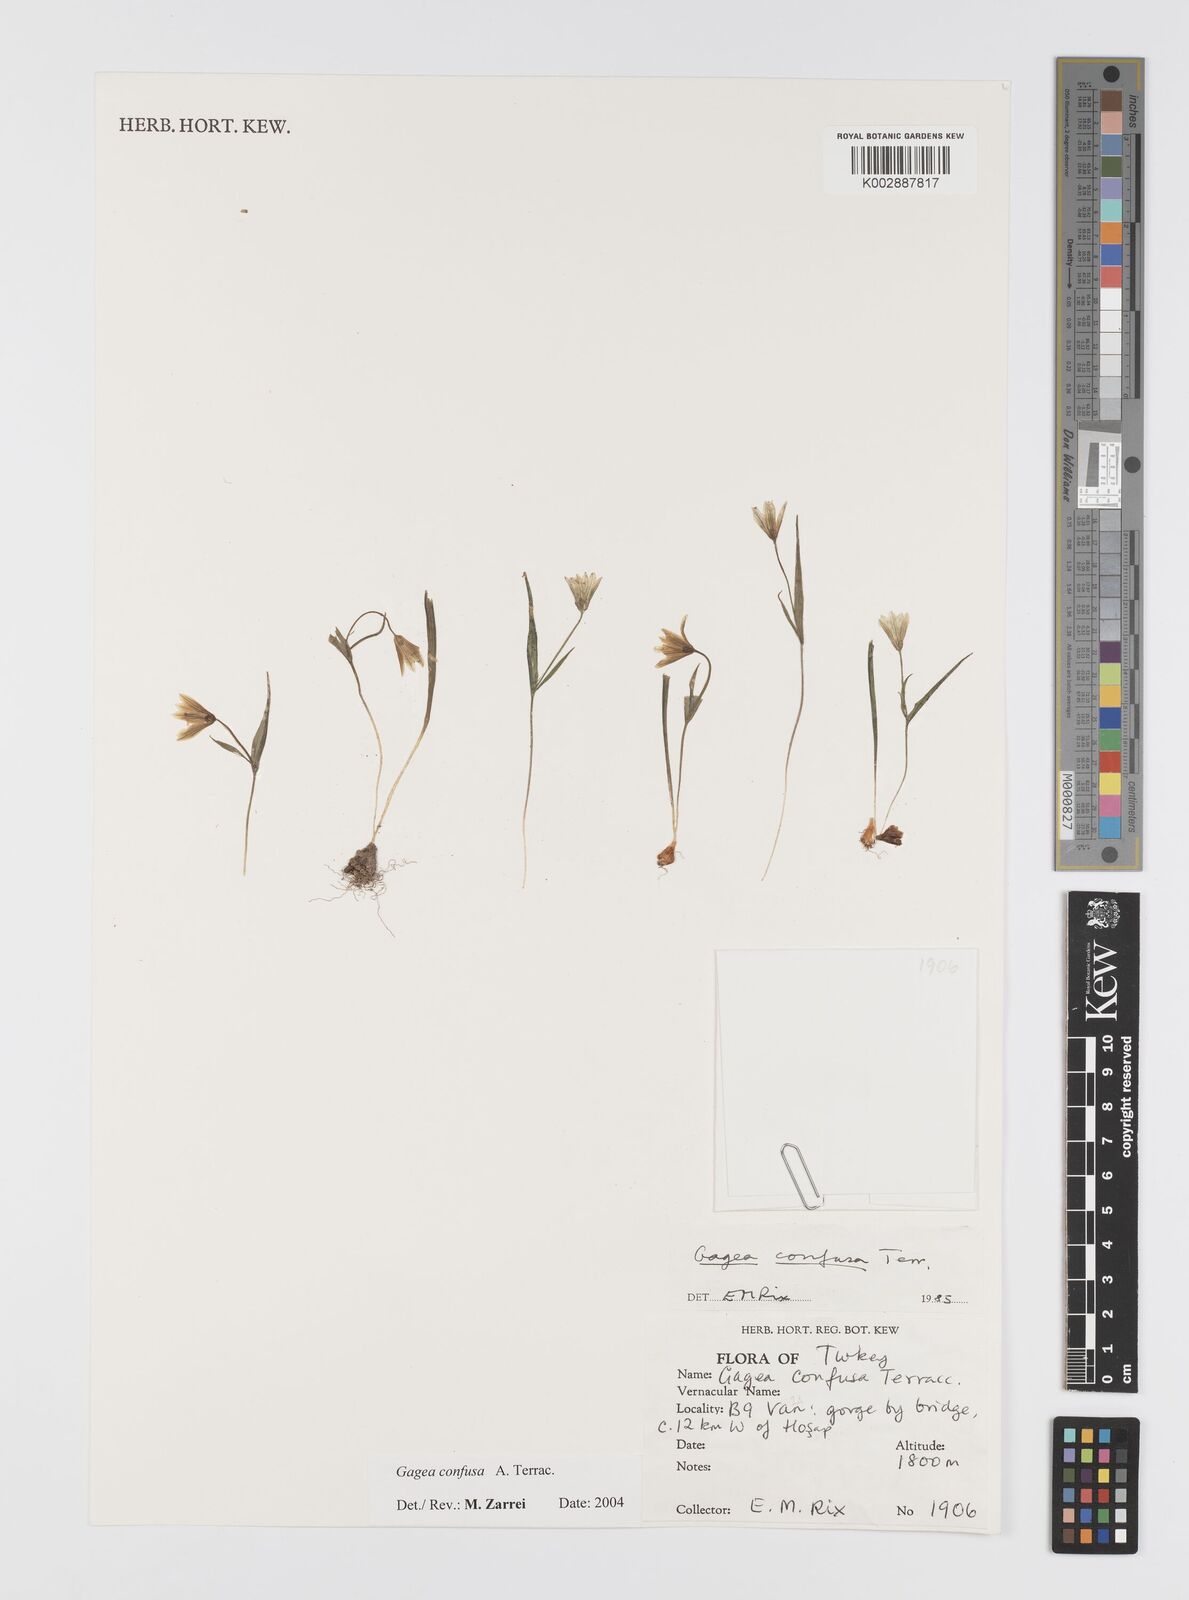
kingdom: Plantae
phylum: Tracheophyta
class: Liliopsida
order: Liliales
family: Liliaceae
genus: Gagea
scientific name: Gagea confusa
